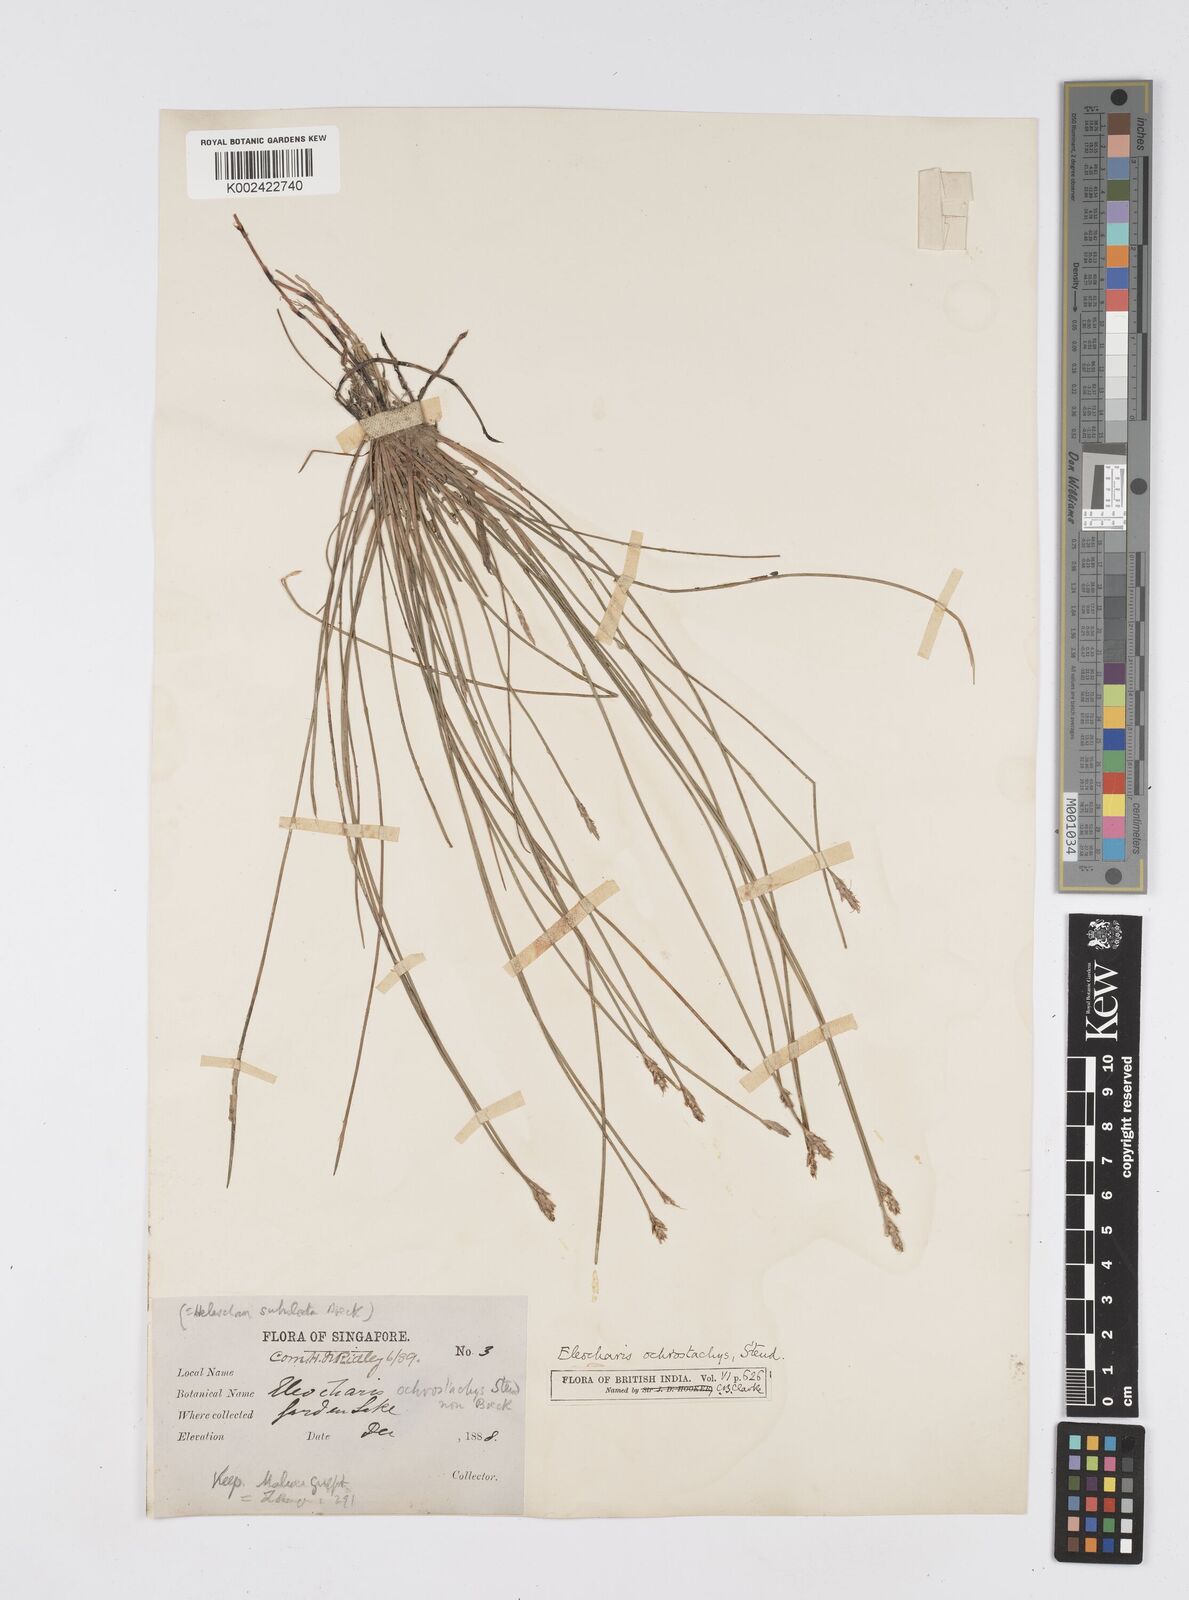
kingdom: Plantae
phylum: Tracheophyta
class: Liliopsida
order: Poales
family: Cyperaceae
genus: Eleocharis
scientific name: Eleocharis ochrostachys
